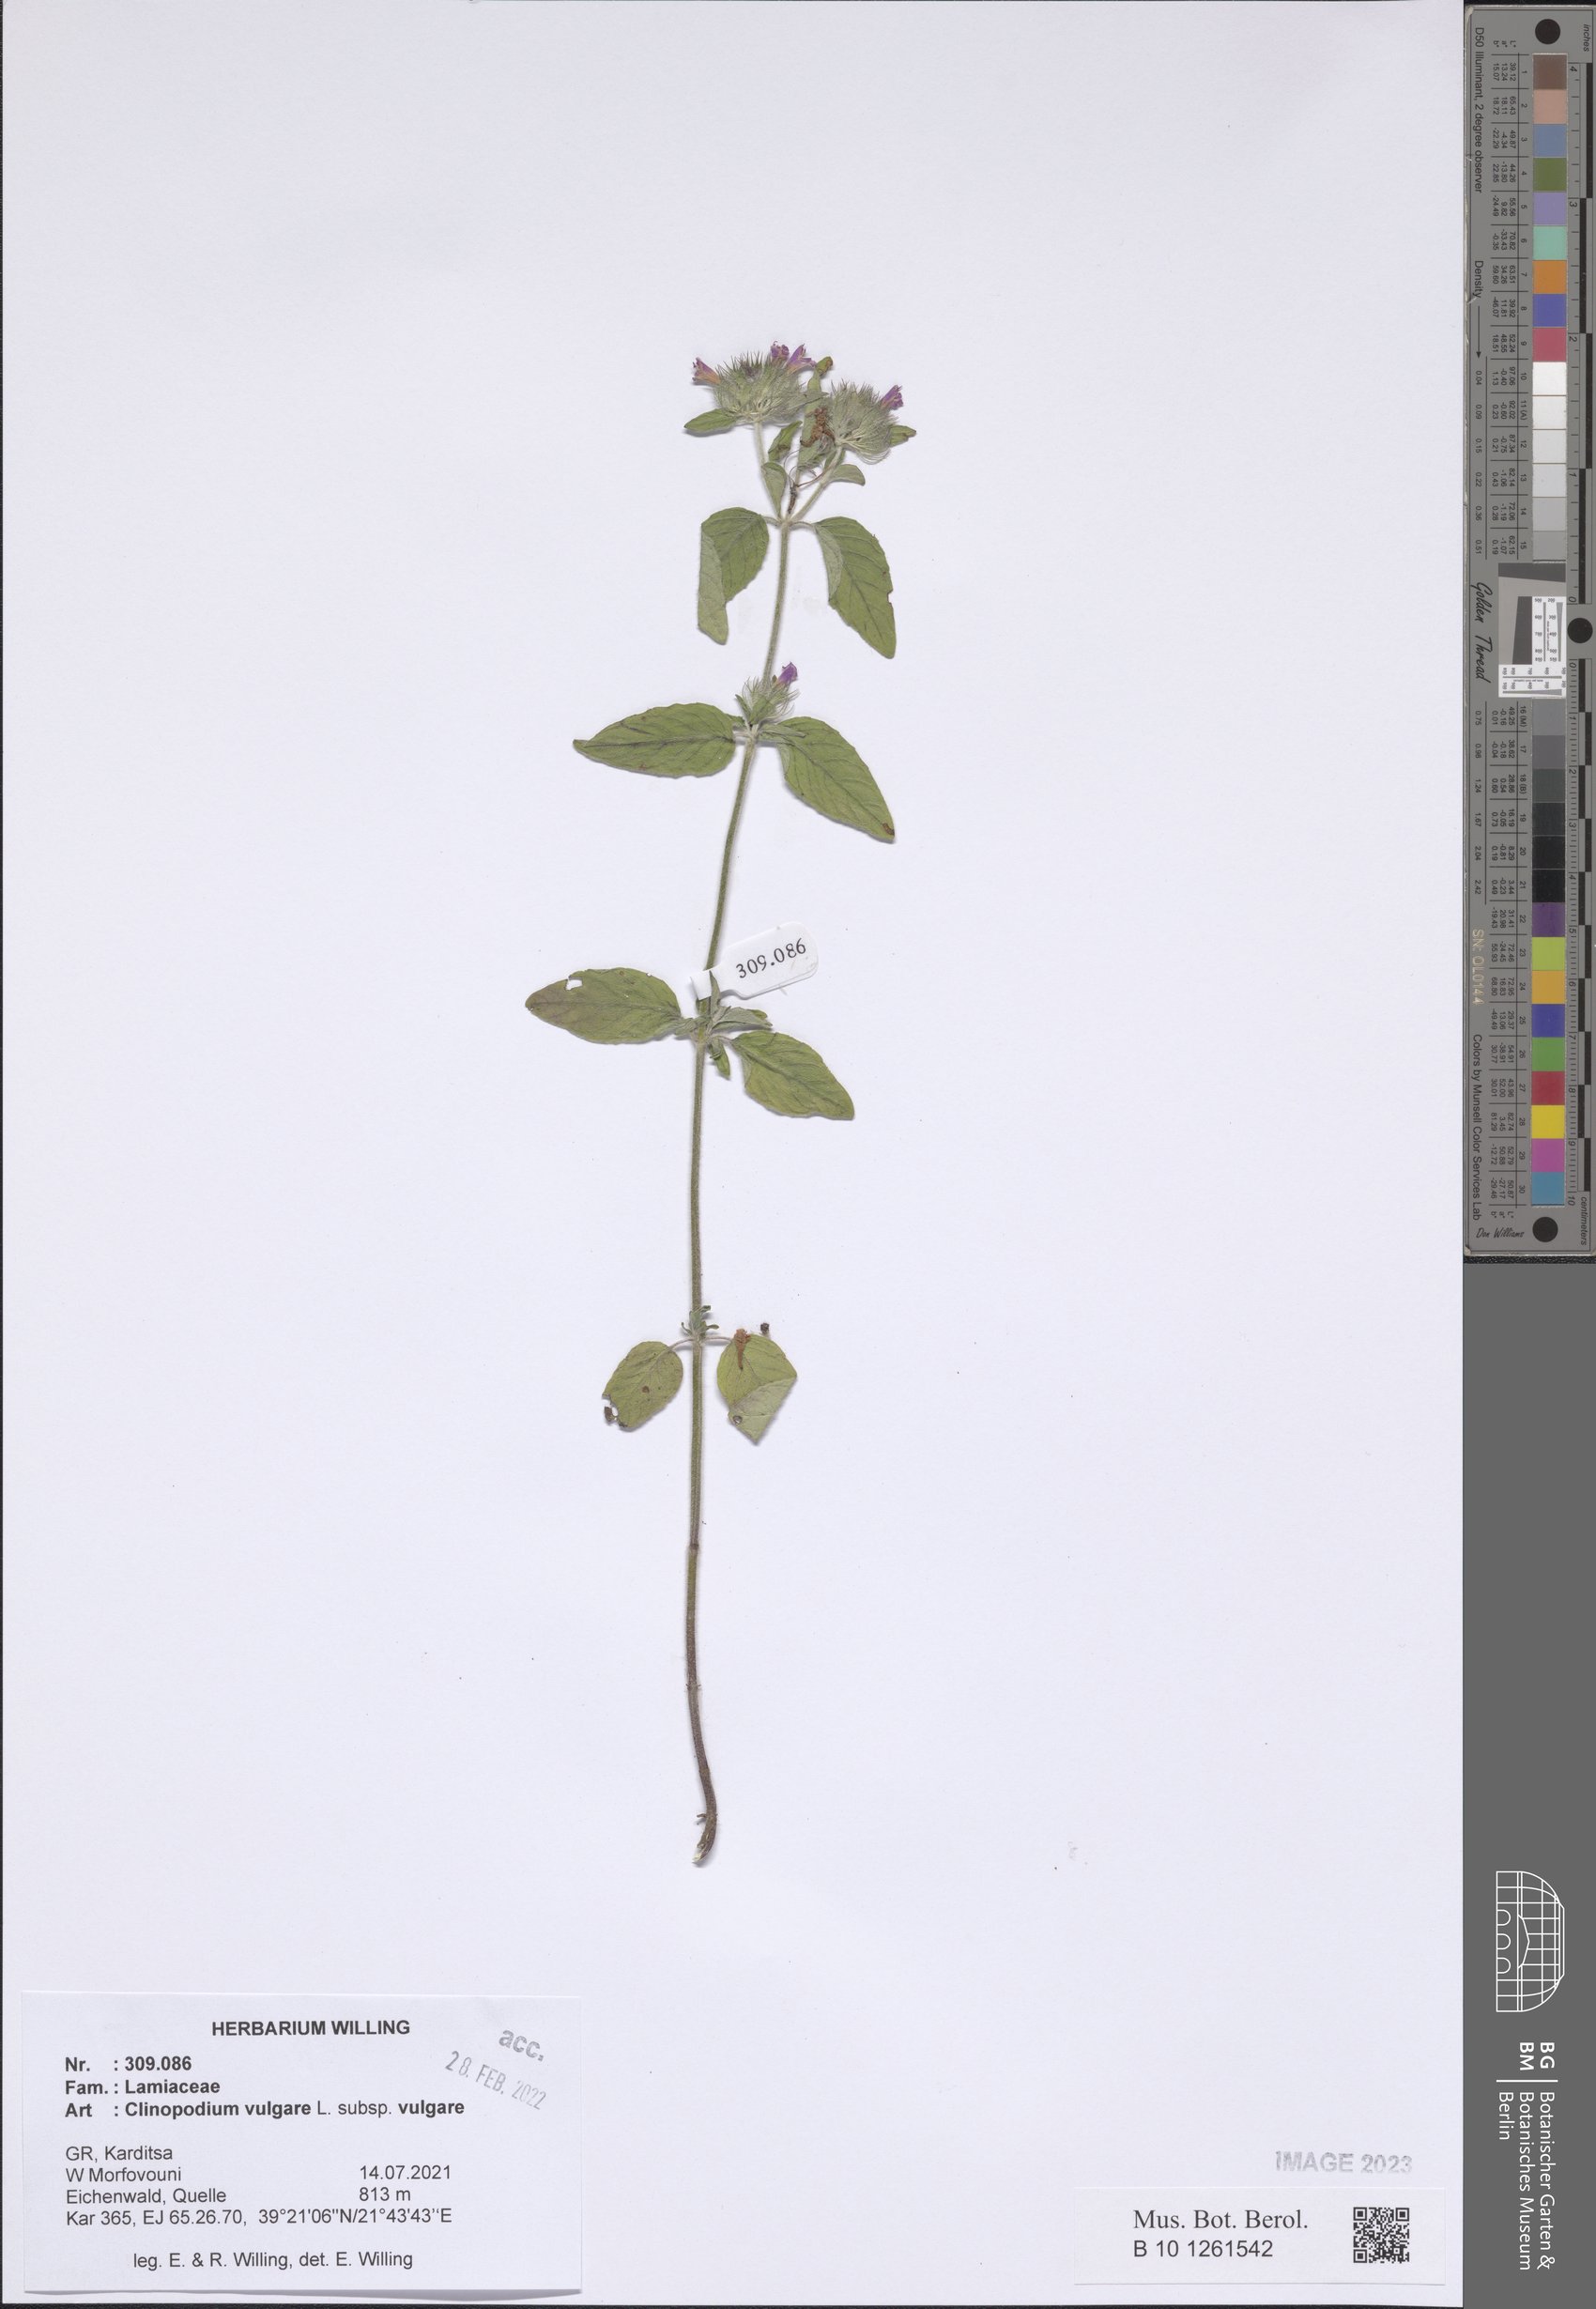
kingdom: Plantae
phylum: Tracheophyta
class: Magnoliopsida
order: Lamiales
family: Lamiaceae
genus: Clinopodium
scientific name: Clinopodium vulgare
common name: Wild basil
